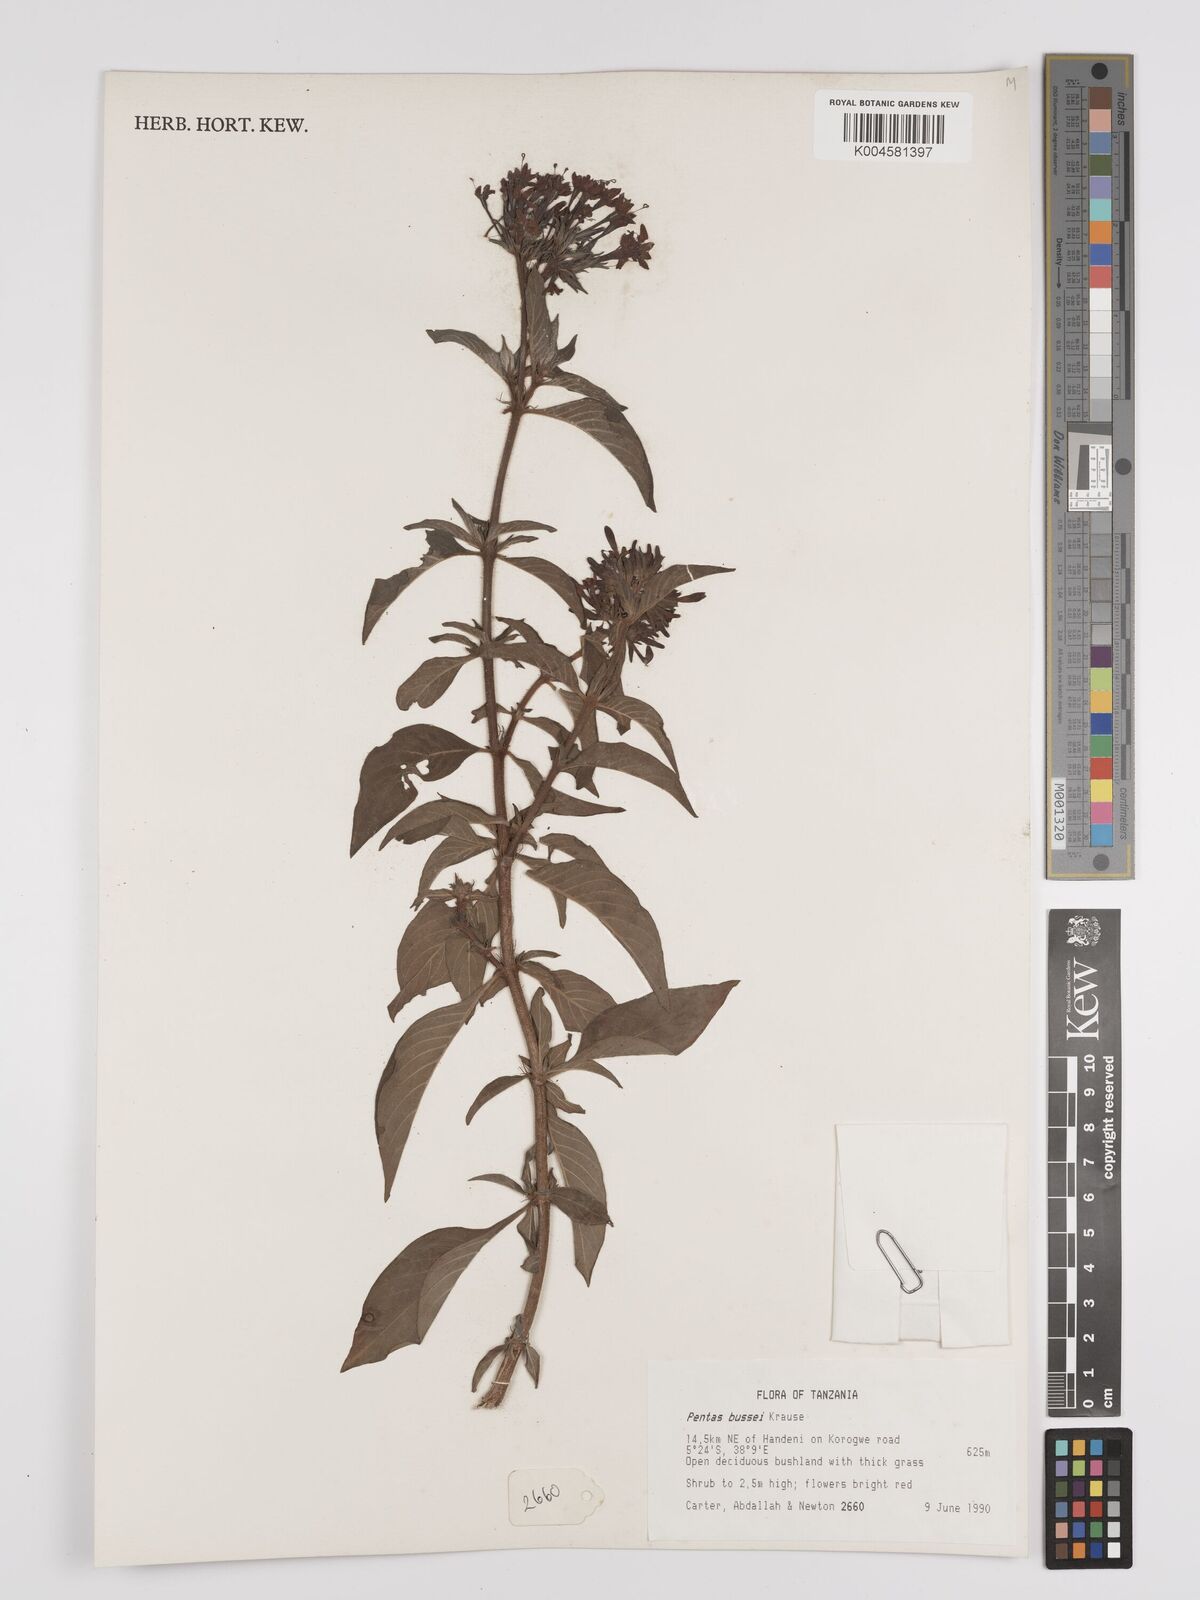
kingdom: Plantae
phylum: Tracheophyta
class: Magnoliopsida
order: Gentianales
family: Rubiaceae
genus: Rhodopentas
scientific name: Rhodopentas bussei
